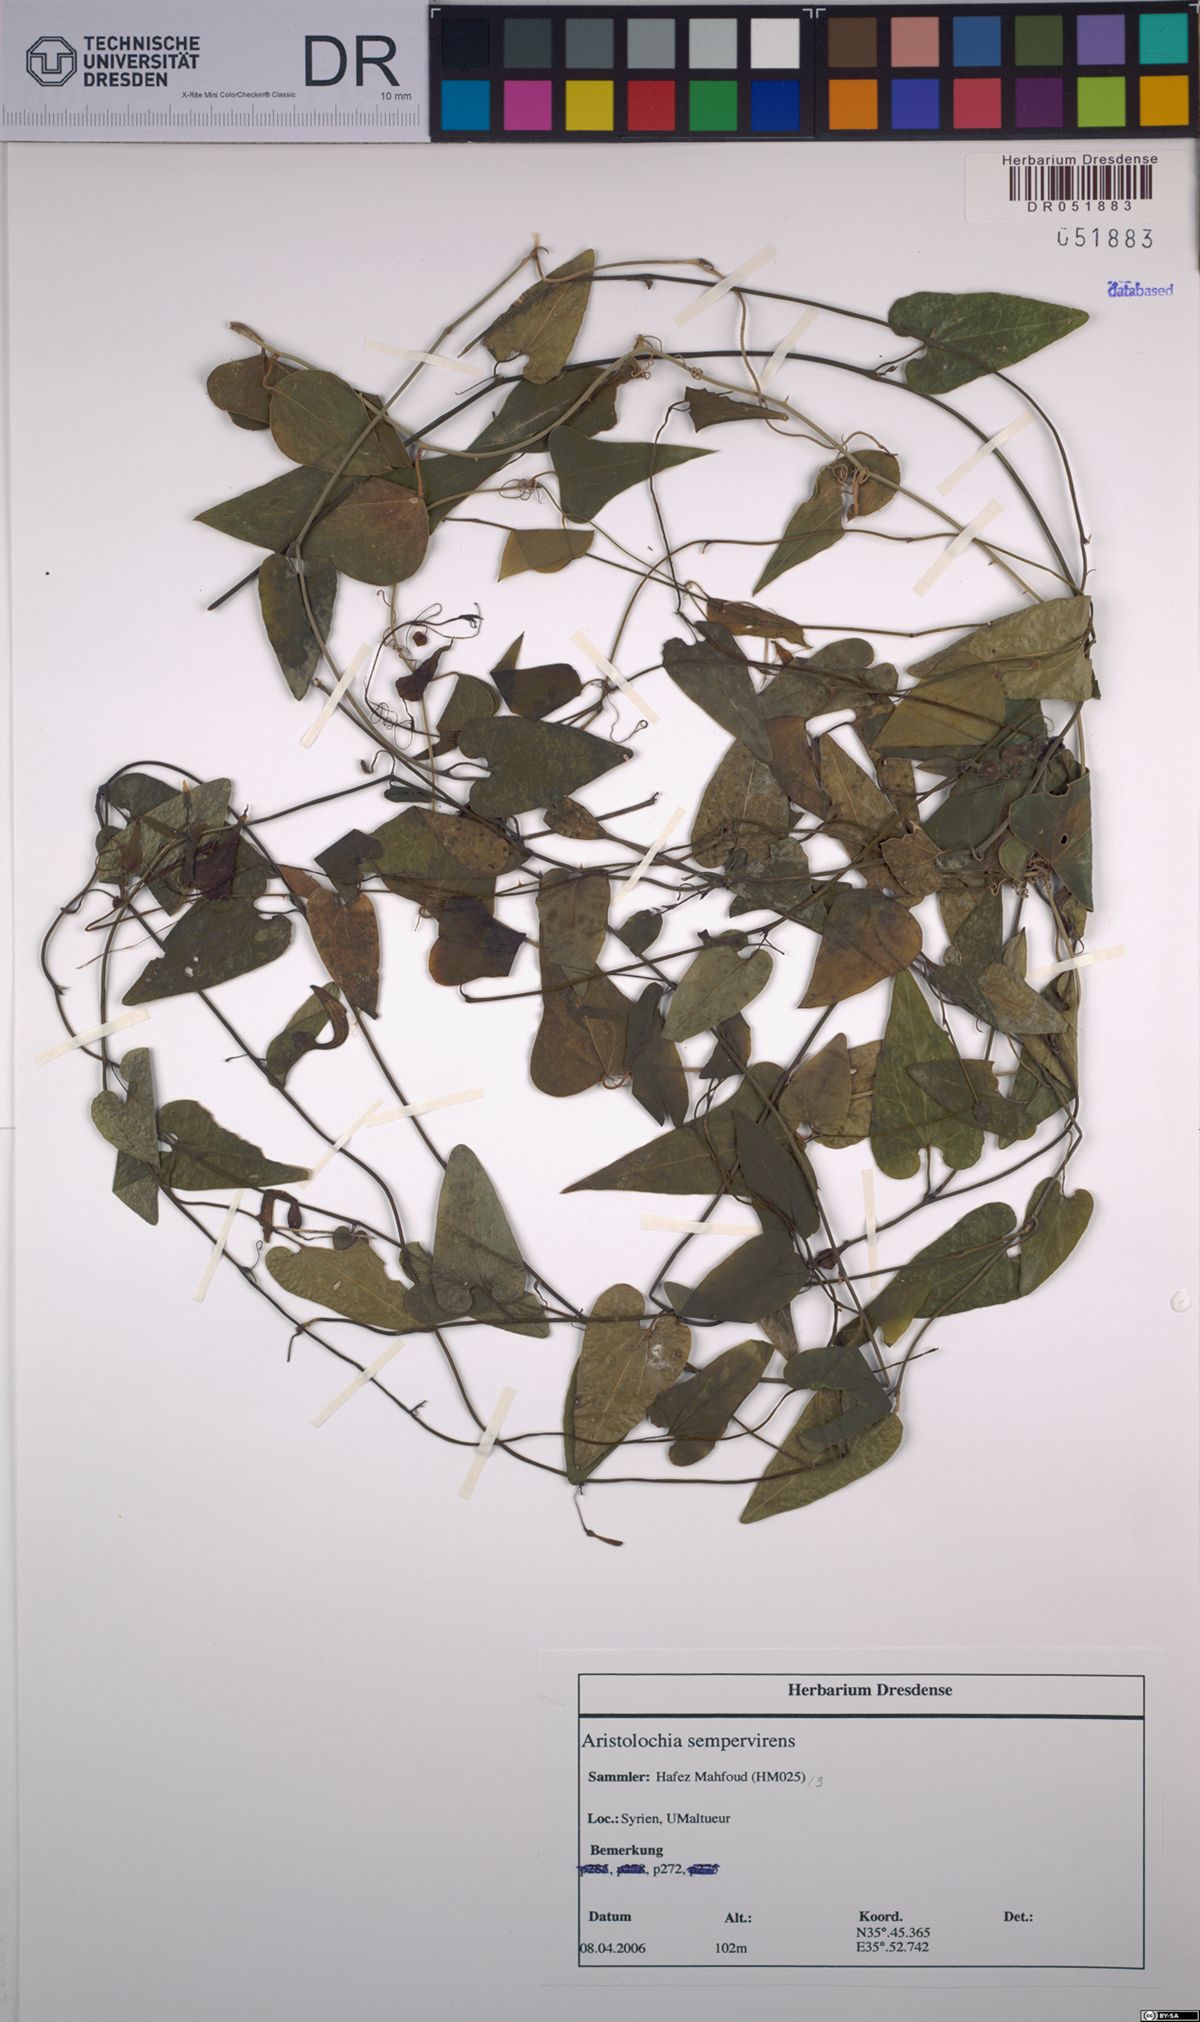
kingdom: Plantae
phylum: Tracheophyta
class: Magnoliopsida
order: Piperales
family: Aristolochiaceae
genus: Aristolochia
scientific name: Aristolochia sempervirens
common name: Long birthwort
